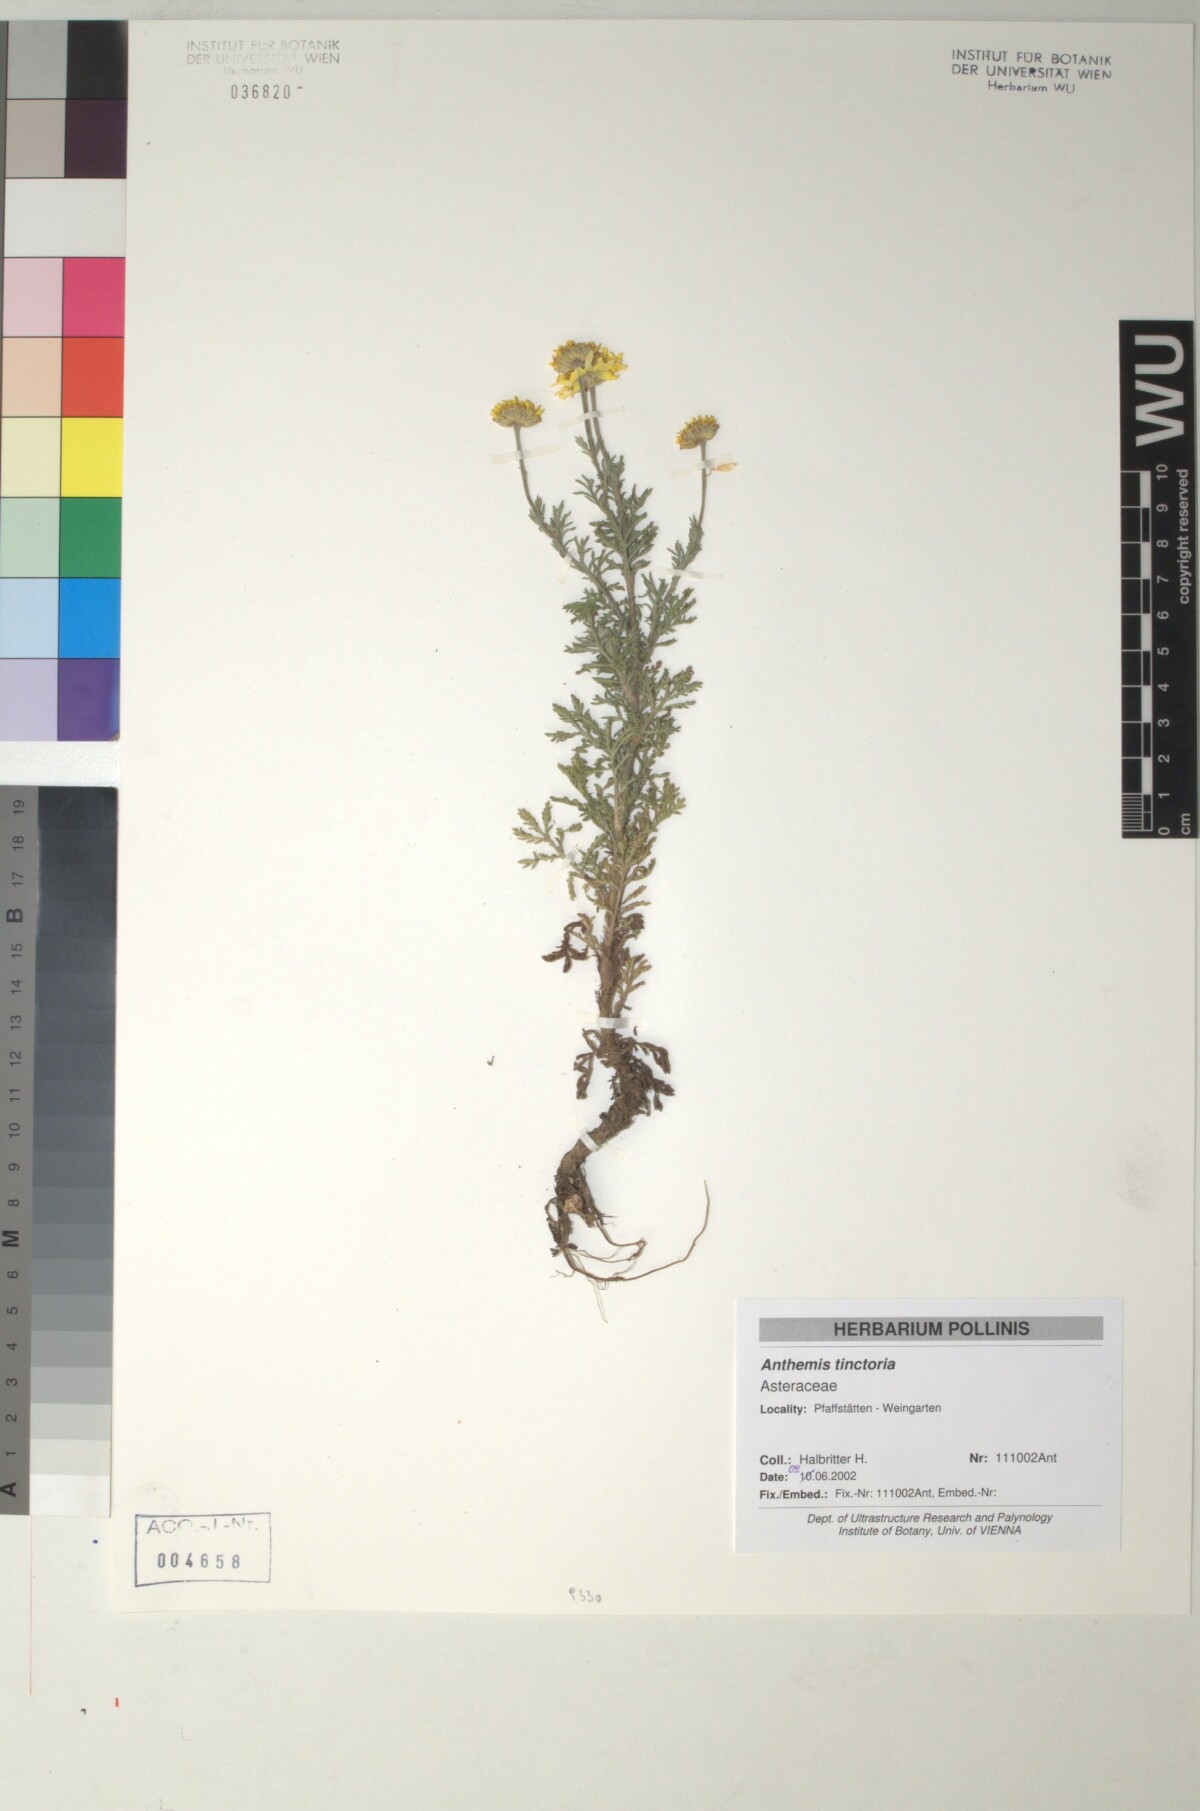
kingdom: Plantae
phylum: Tracheophyta
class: Magnoliopsida
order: Asterales
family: Asteraceae
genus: Cota
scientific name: Cota tinctoria
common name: Golden chamomile
